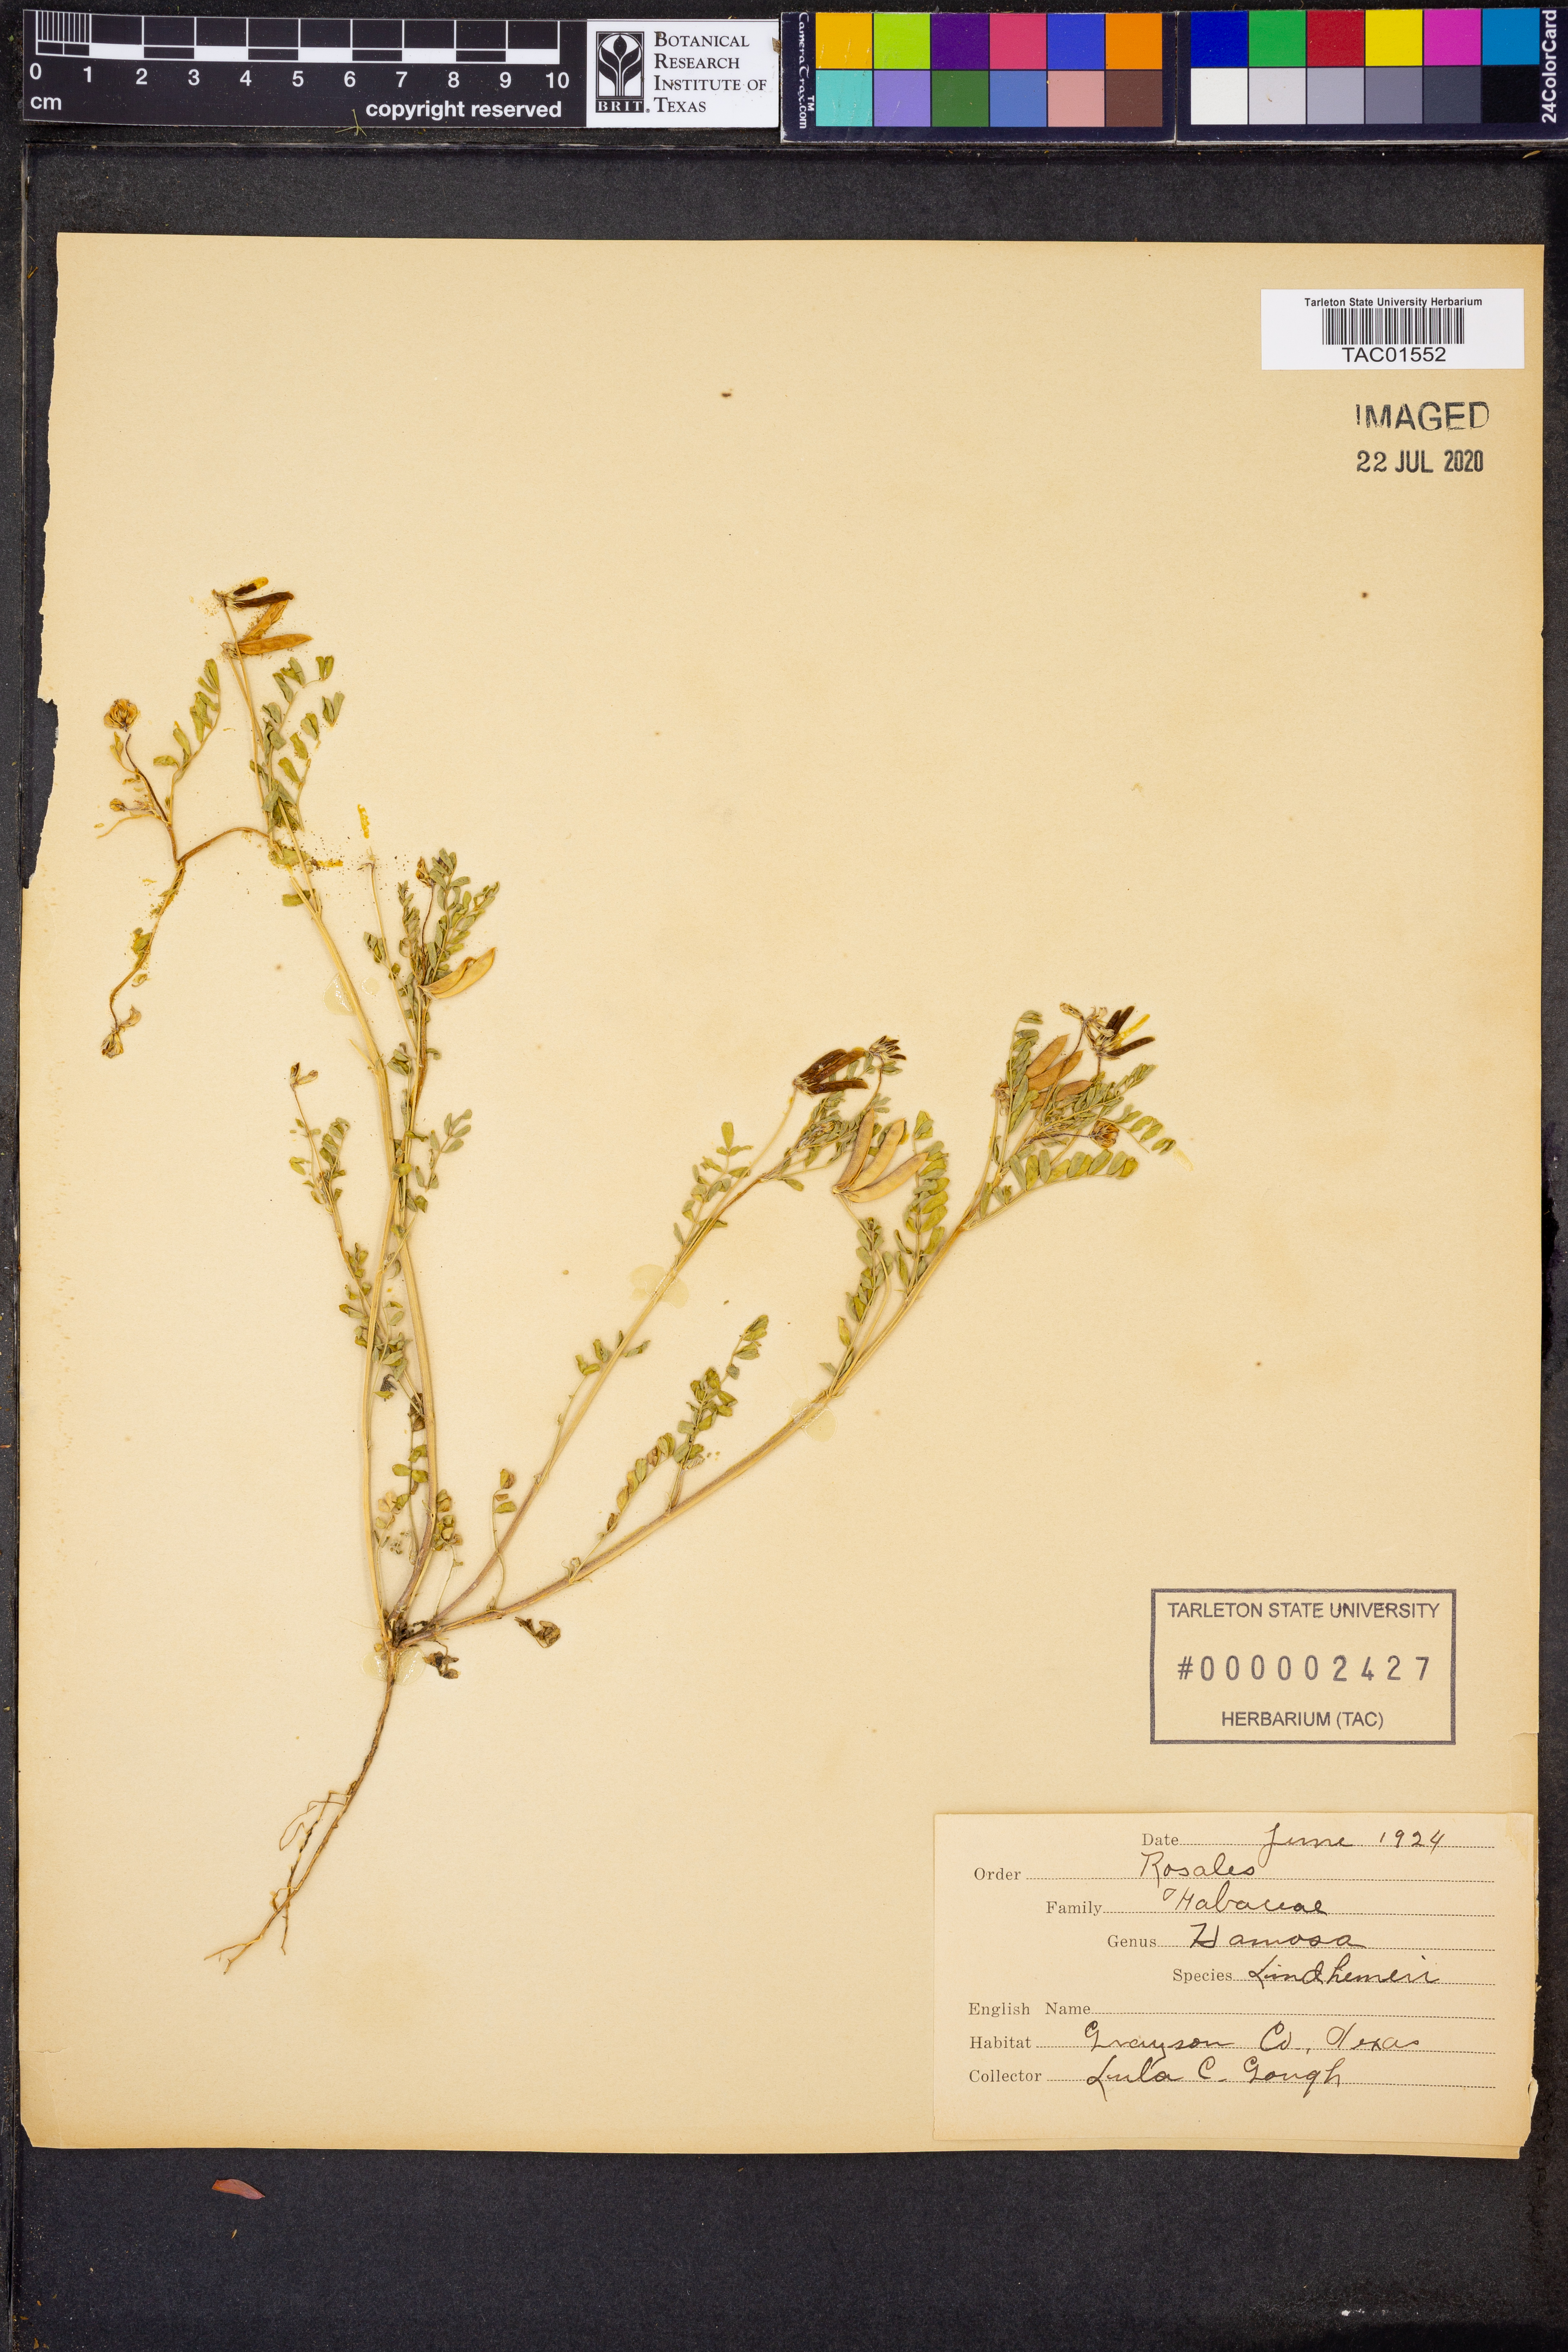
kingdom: Plantae
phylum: Tracheophyta
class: Magnoliopsida
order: Fabales
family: Fabaceae
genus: Astragalus
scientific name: Astragalus lindheimeri
